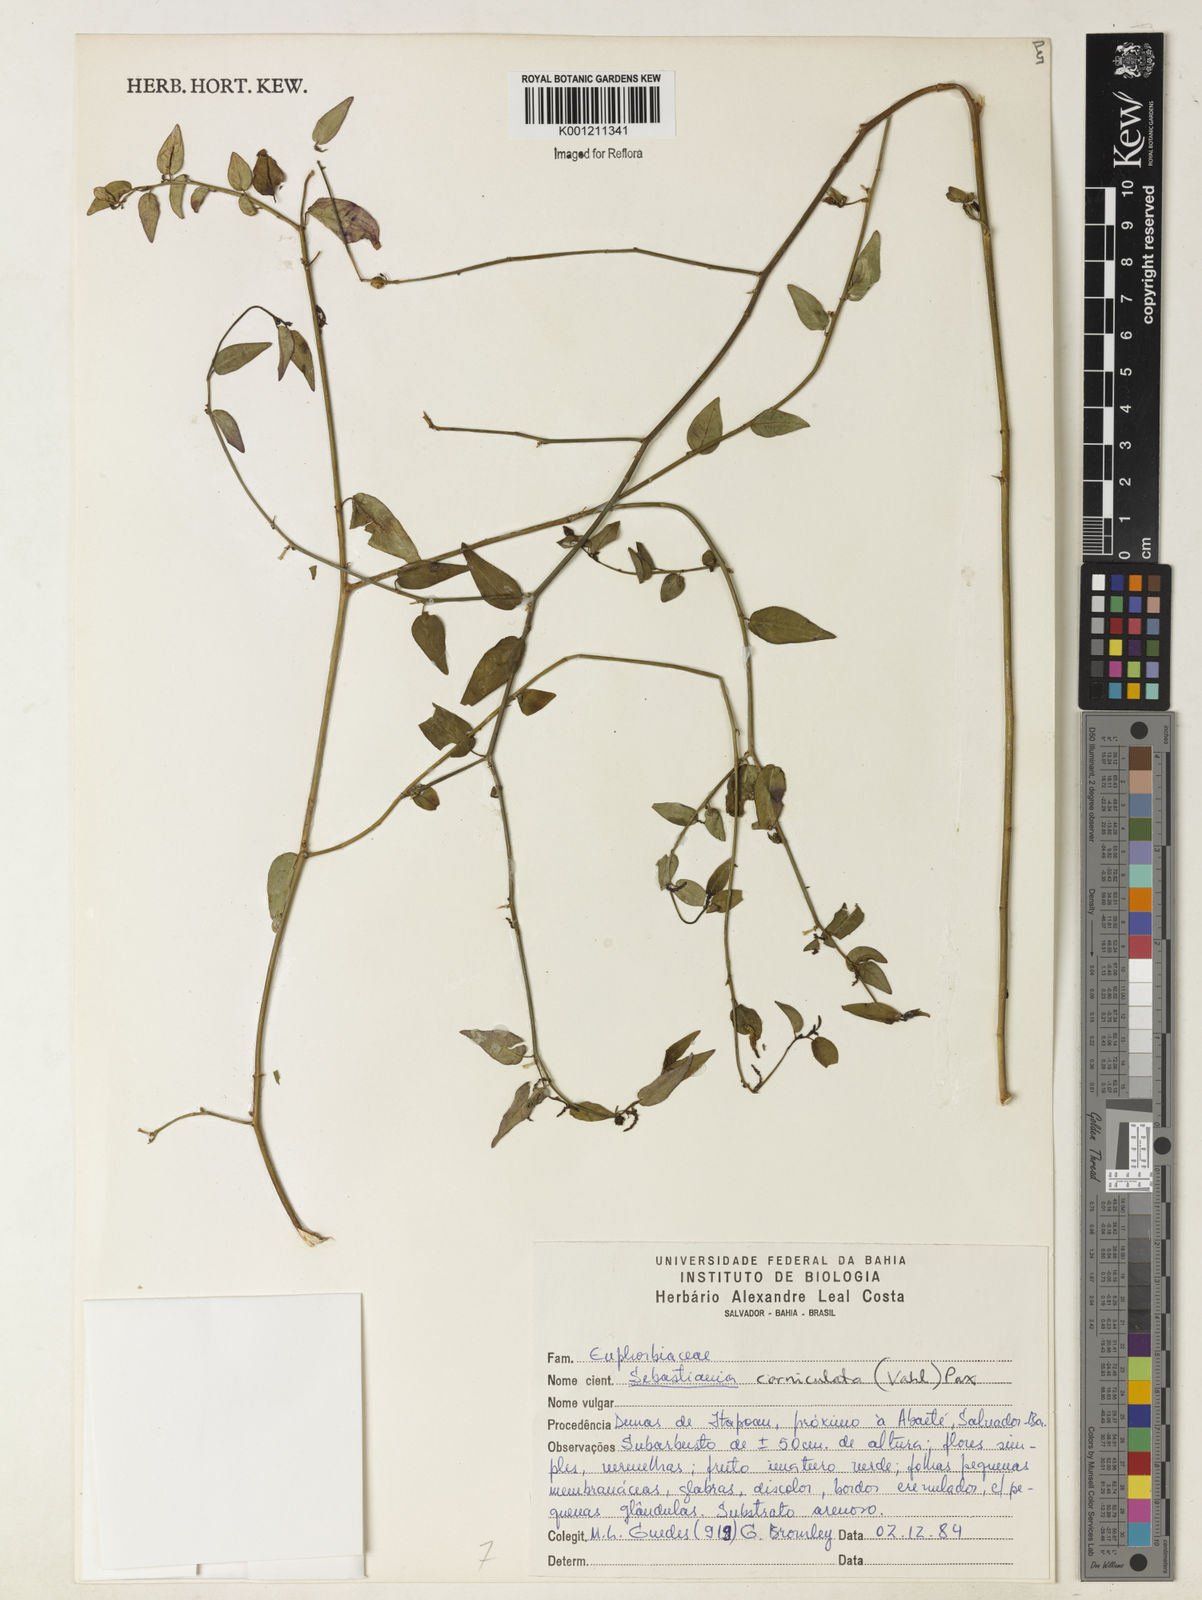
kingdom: Plantae
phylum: Tracheophyta
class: Magnoliopsida
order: Malpighiales
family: Euphorbiaceae
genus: Microstachys
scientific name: Microstachys corniculata
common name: Hato tejas
